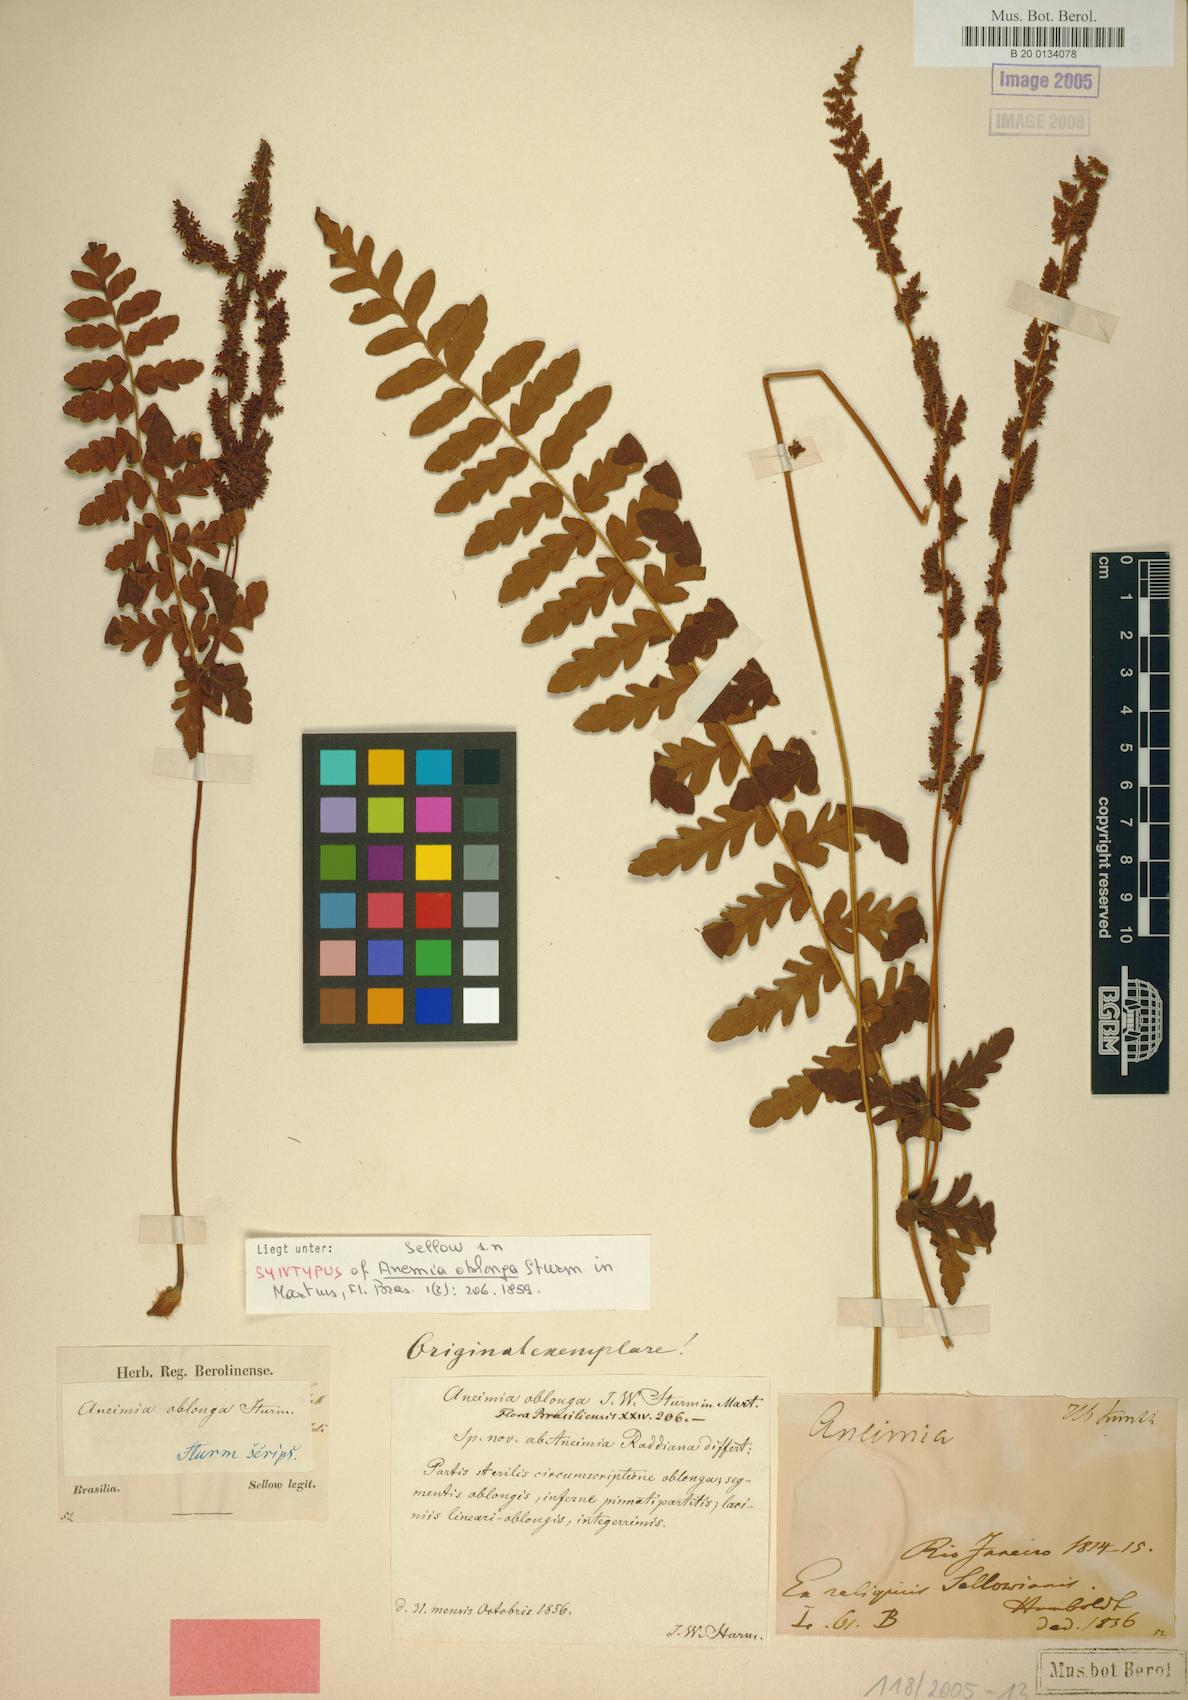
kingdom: Plantae
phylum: Tracheophyta
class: Polypodiopsida
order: Schizaeales
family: Anemiaceae
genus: Anemia
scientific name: Anemia flexuosa
